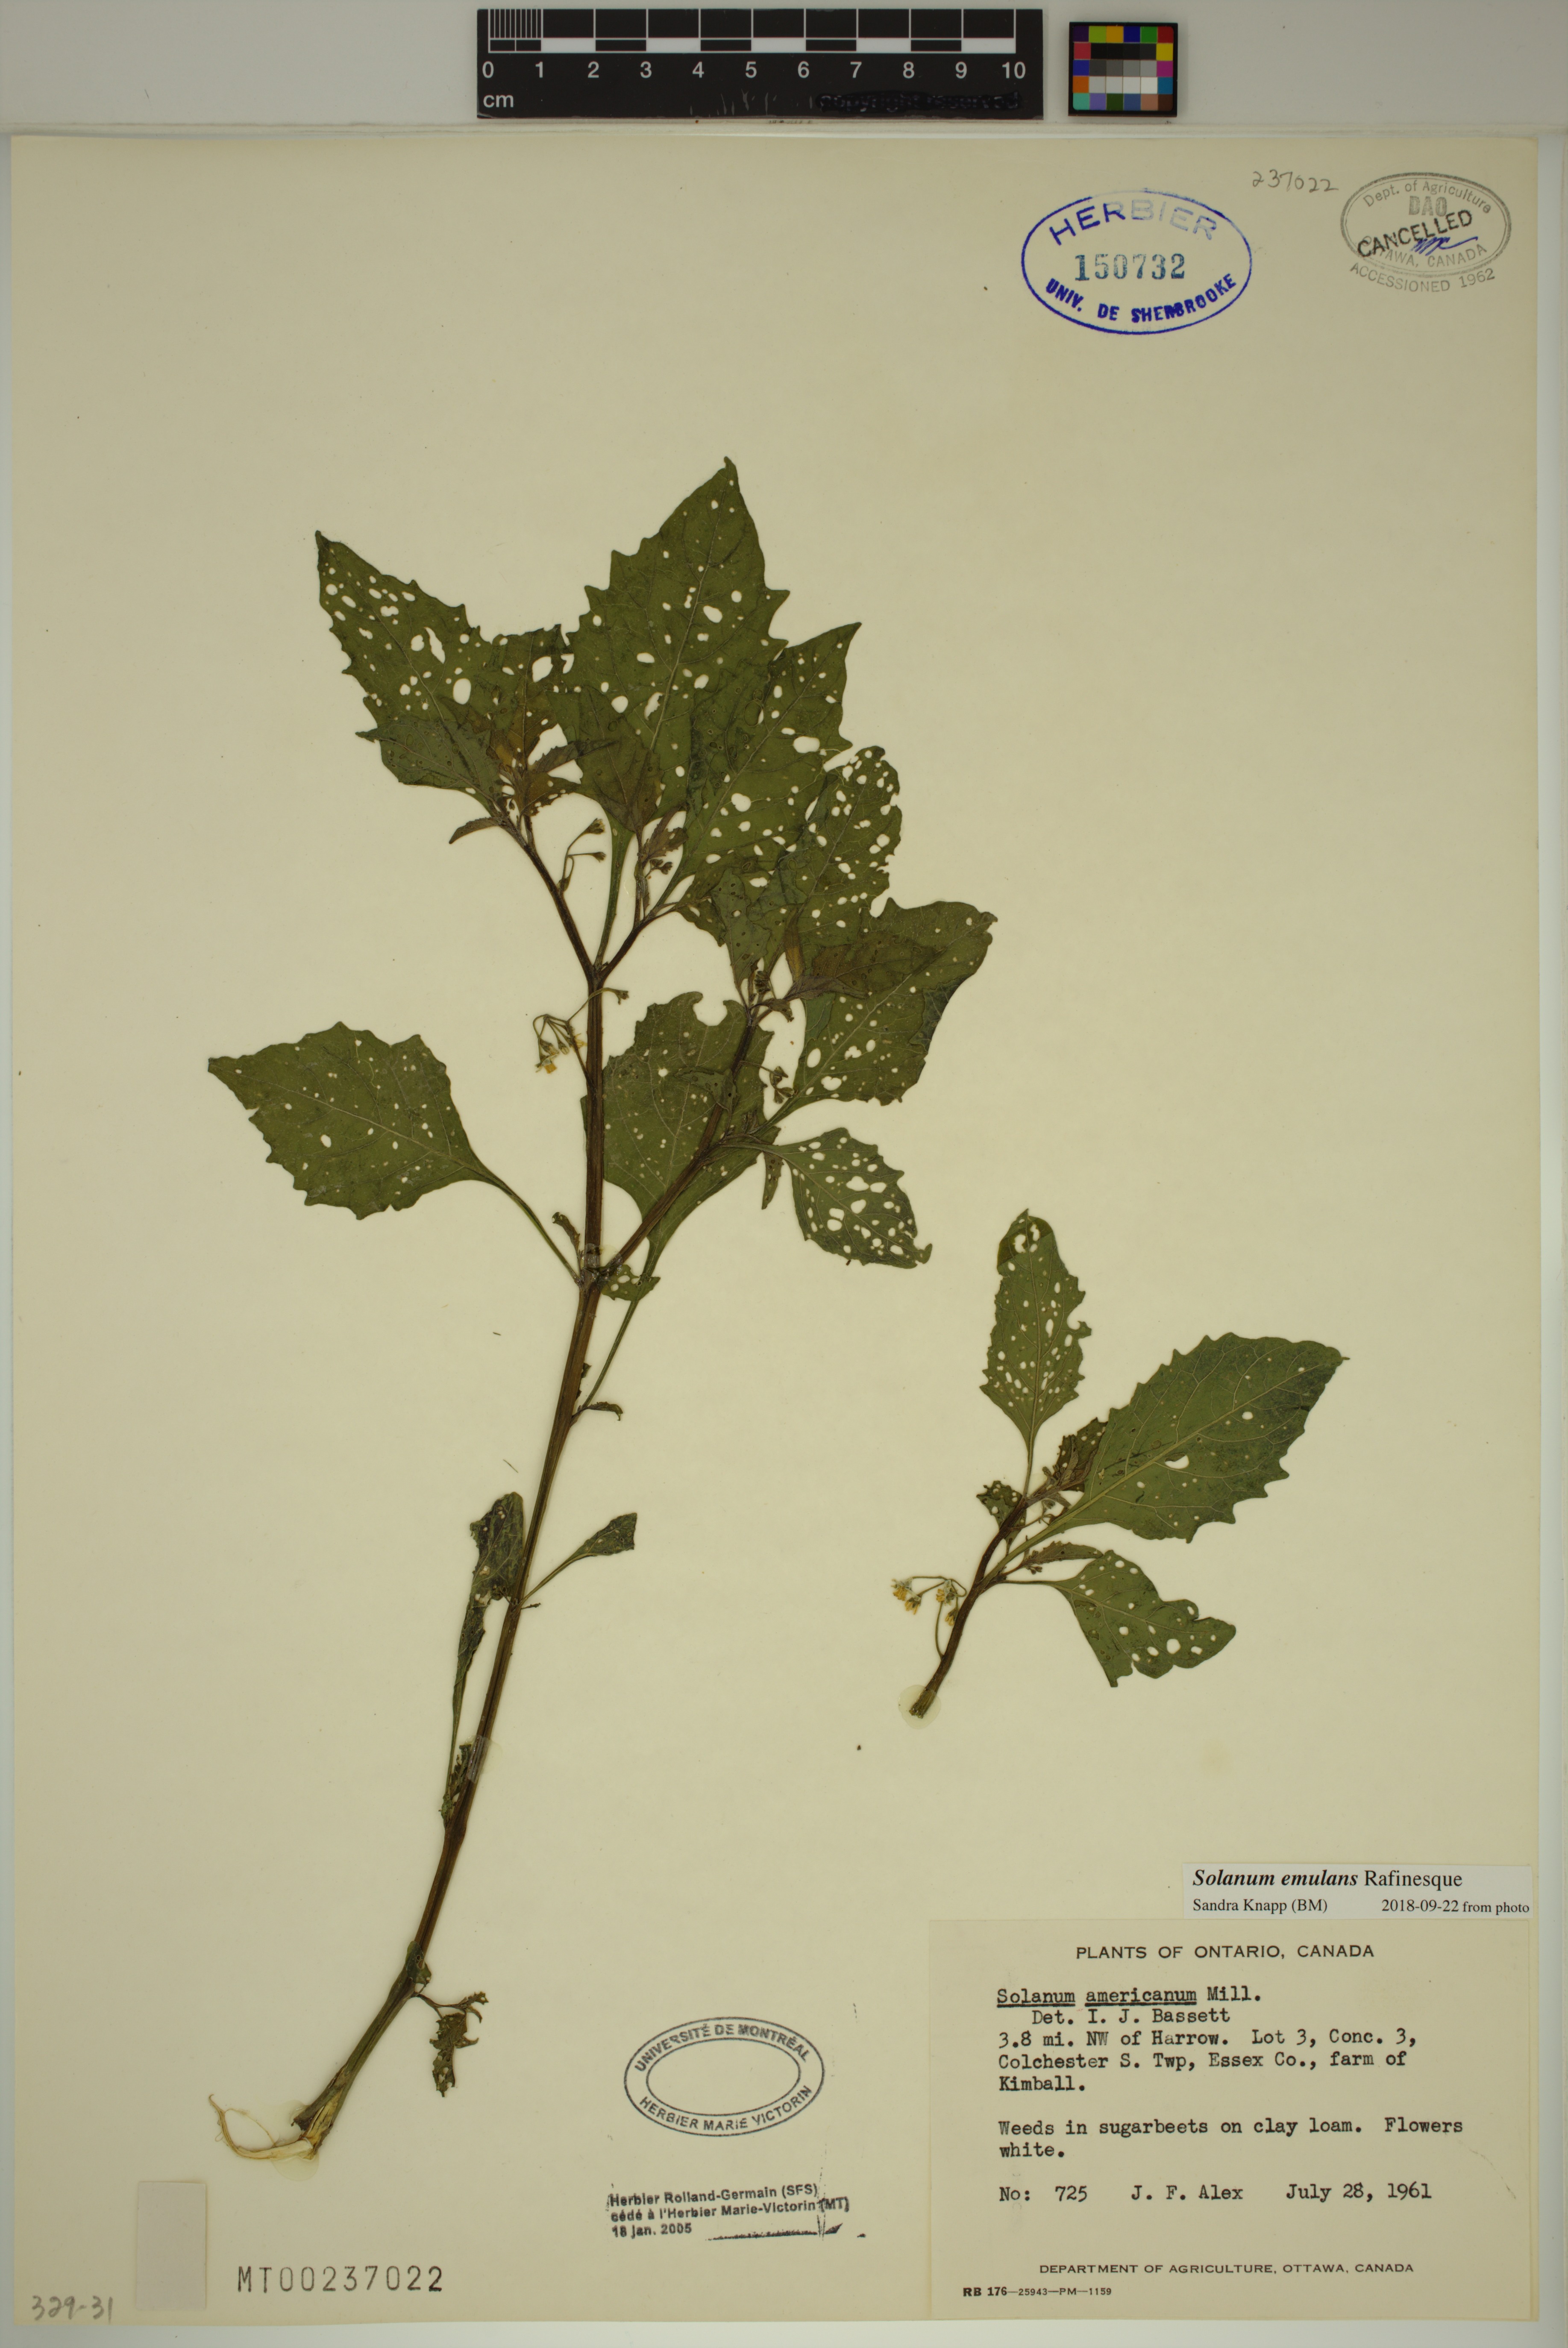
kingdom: Plantae
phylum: Tracheophyta
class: Magnoliopsida
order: Solanales
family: Solanaceae
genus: Solanum
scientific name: Solanum emulans
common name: Eastern black nightshade
